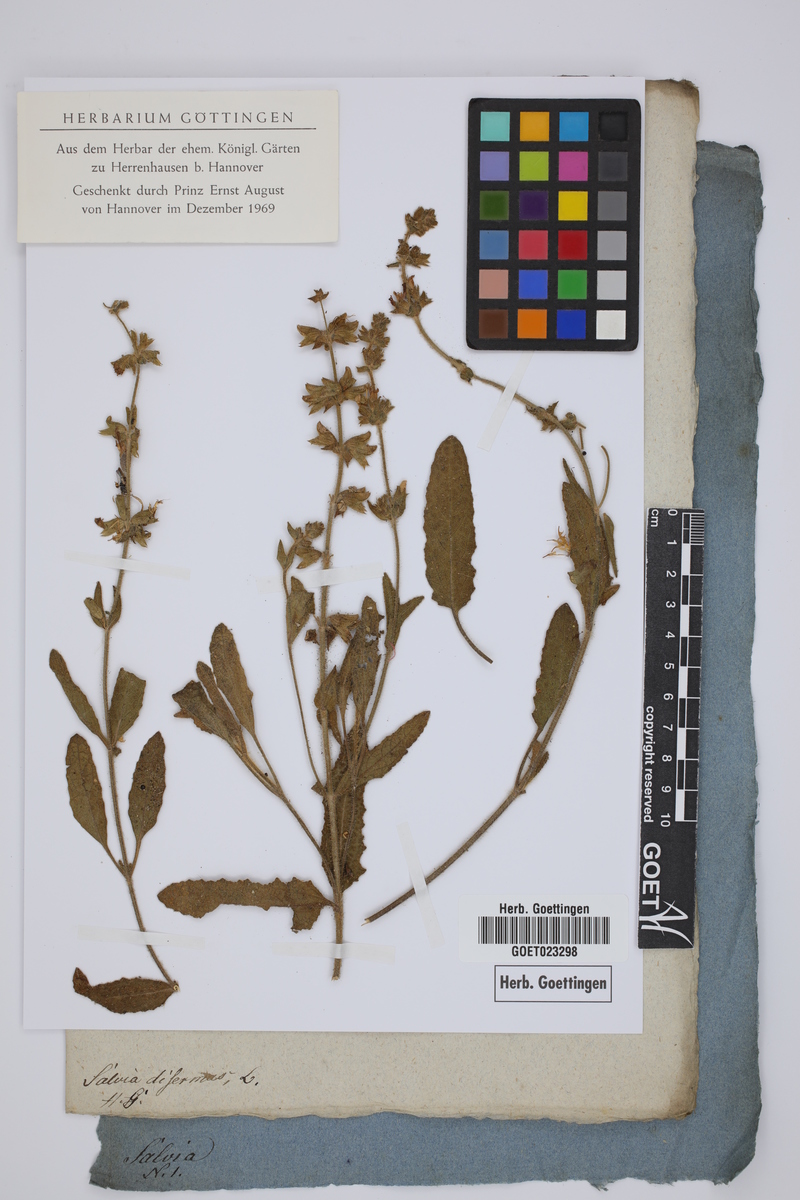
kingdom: Plantae
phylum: Tracheophyta
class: Magnoliopsida
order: Lamiales
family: Lamiaceae
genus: Salvia
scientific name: Salvia disermas
